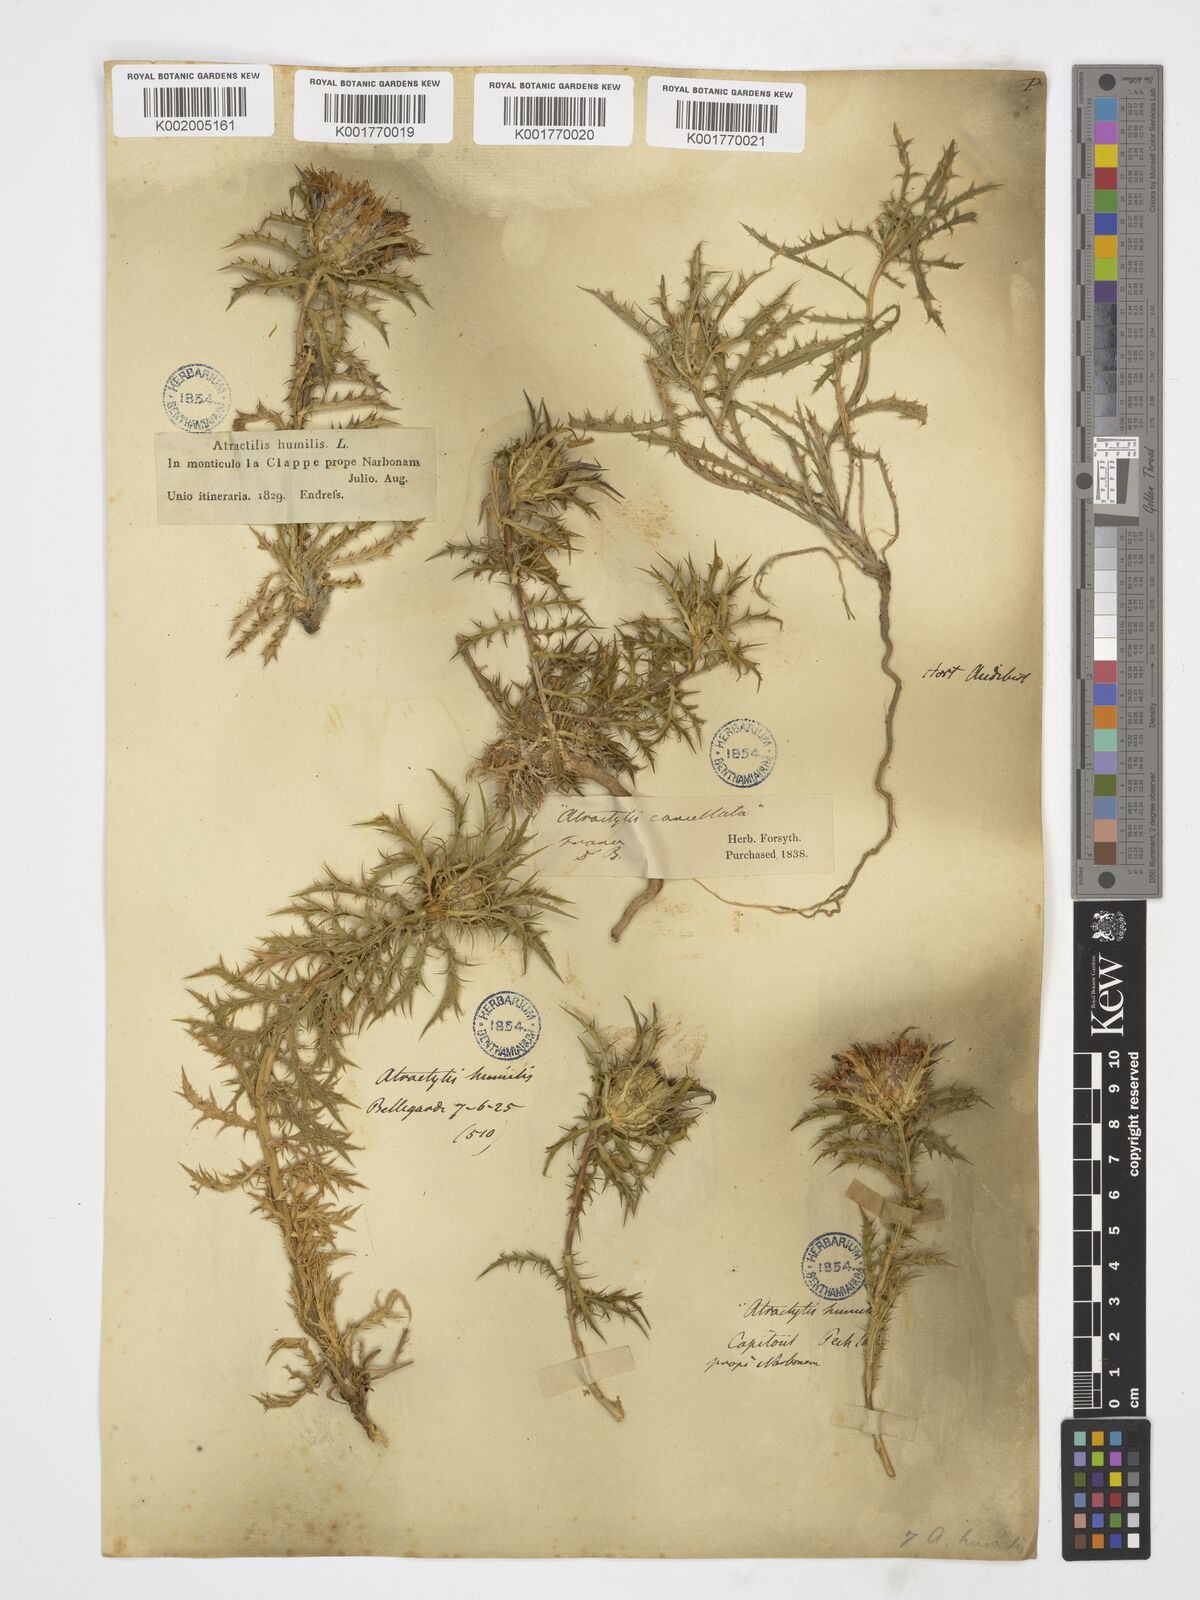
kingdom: Plantae
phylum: Tracheophyta
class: Magnoliopsida
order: Asterales
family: Asteraceae
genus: Atractylis
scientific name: Atractylis cancellata
